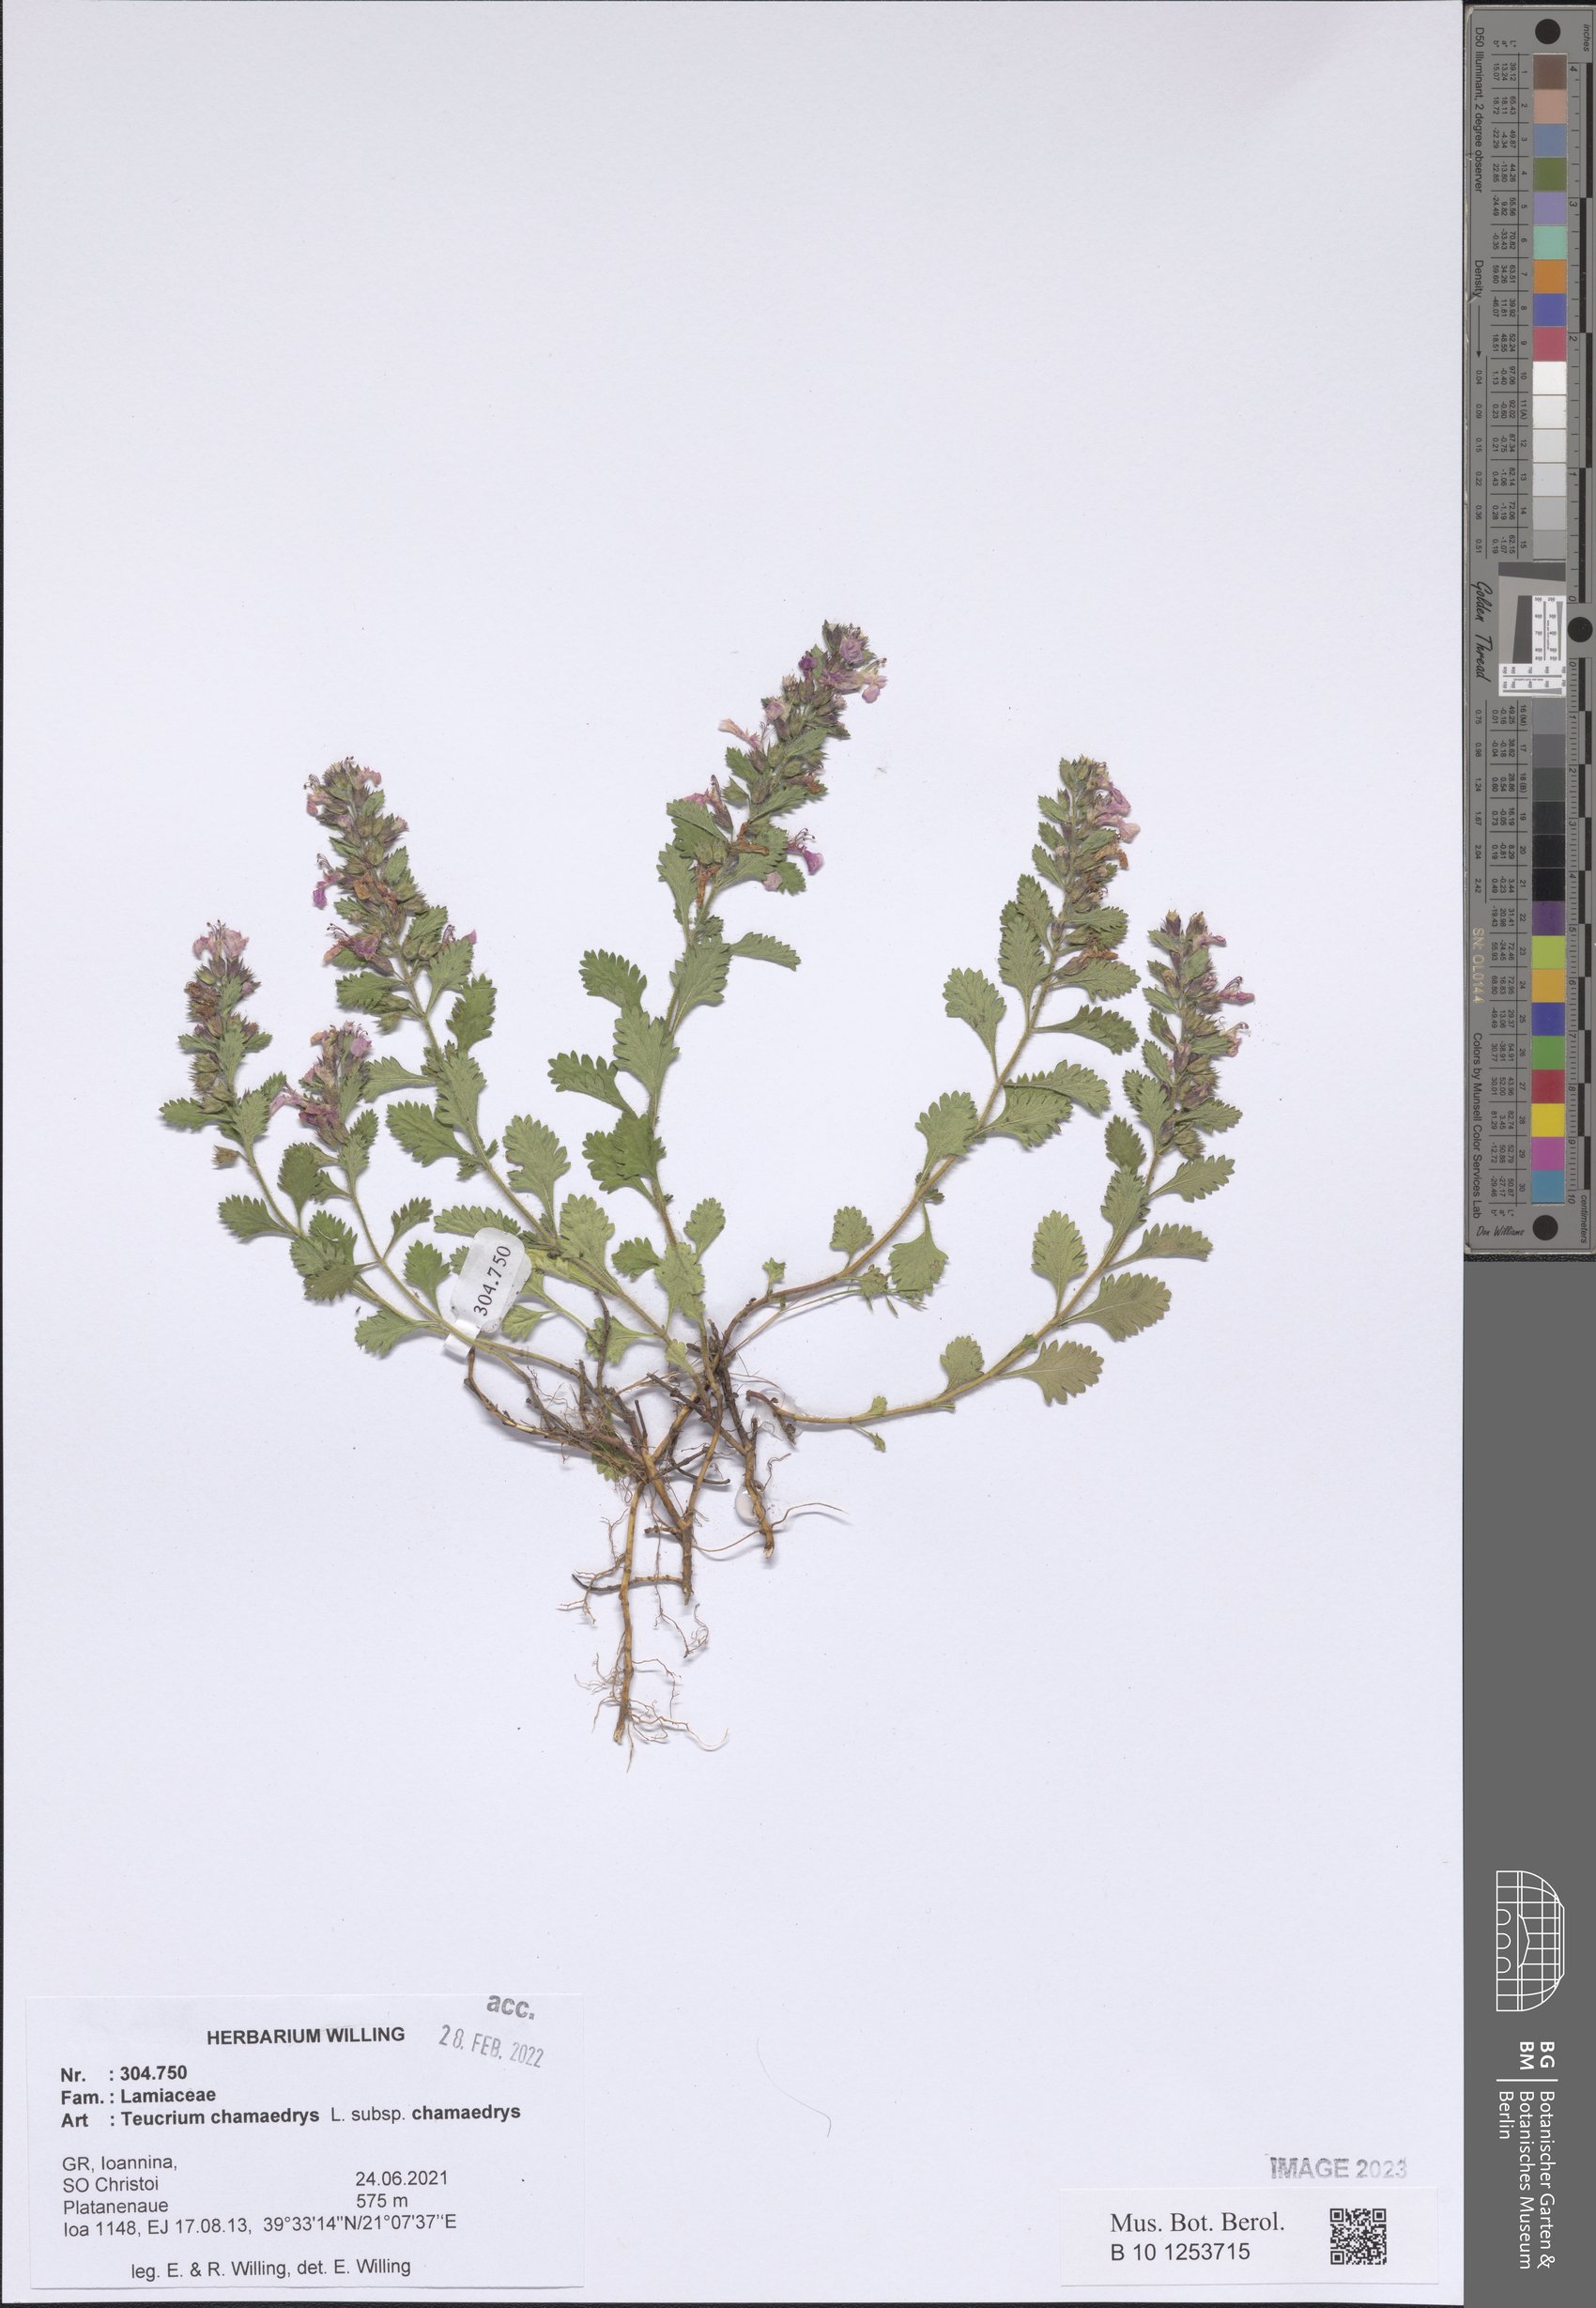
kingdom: Plantae
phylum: Tracheophyta
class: Magnoliopsida
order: Lamiales
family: Lamiaceae
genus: Teucrium
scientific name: Teucrium chamaedrys
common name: Wall germander
